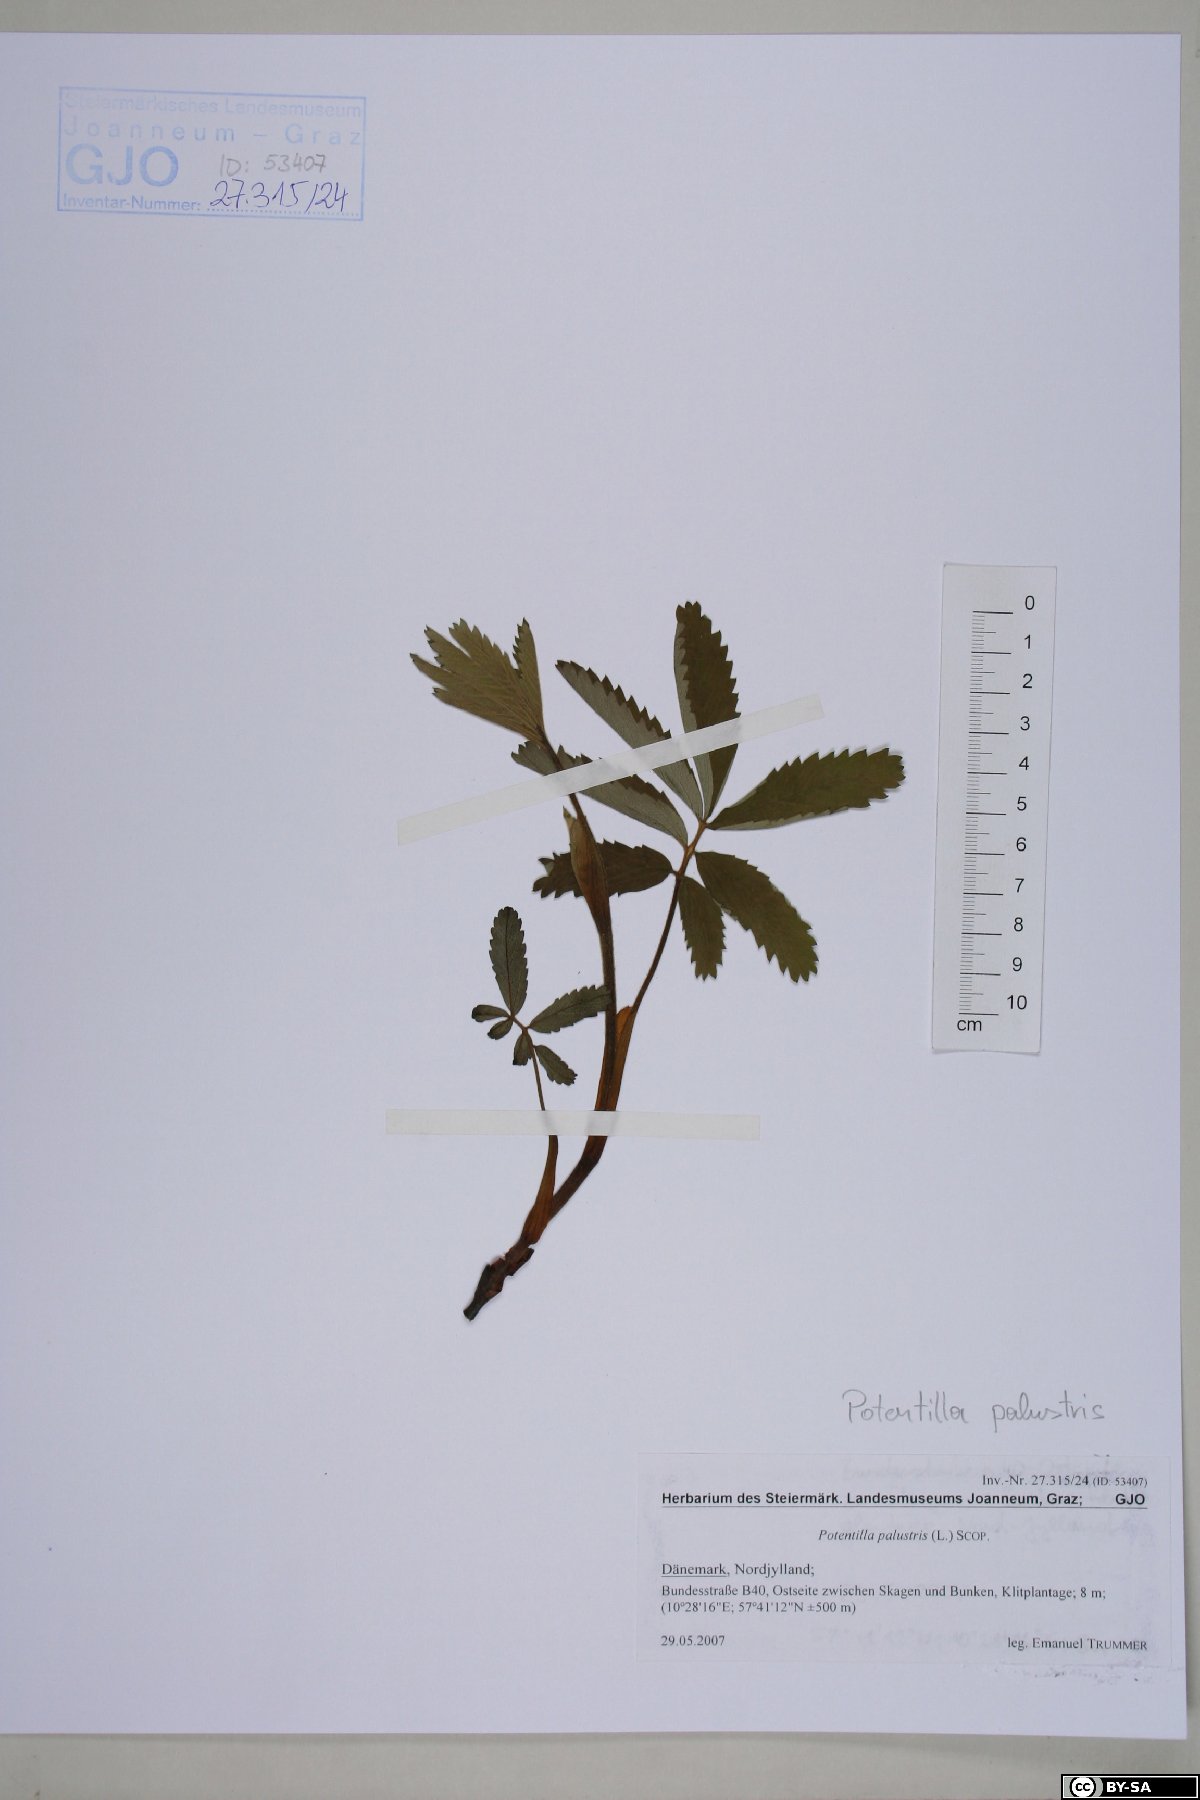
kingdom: Plantae
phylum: Tracheophyta
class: Magnoliopsida
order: Rosales
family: Rosaceae
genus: Comarum
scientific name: Comarum palustre
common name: Marsh cinquefoil
